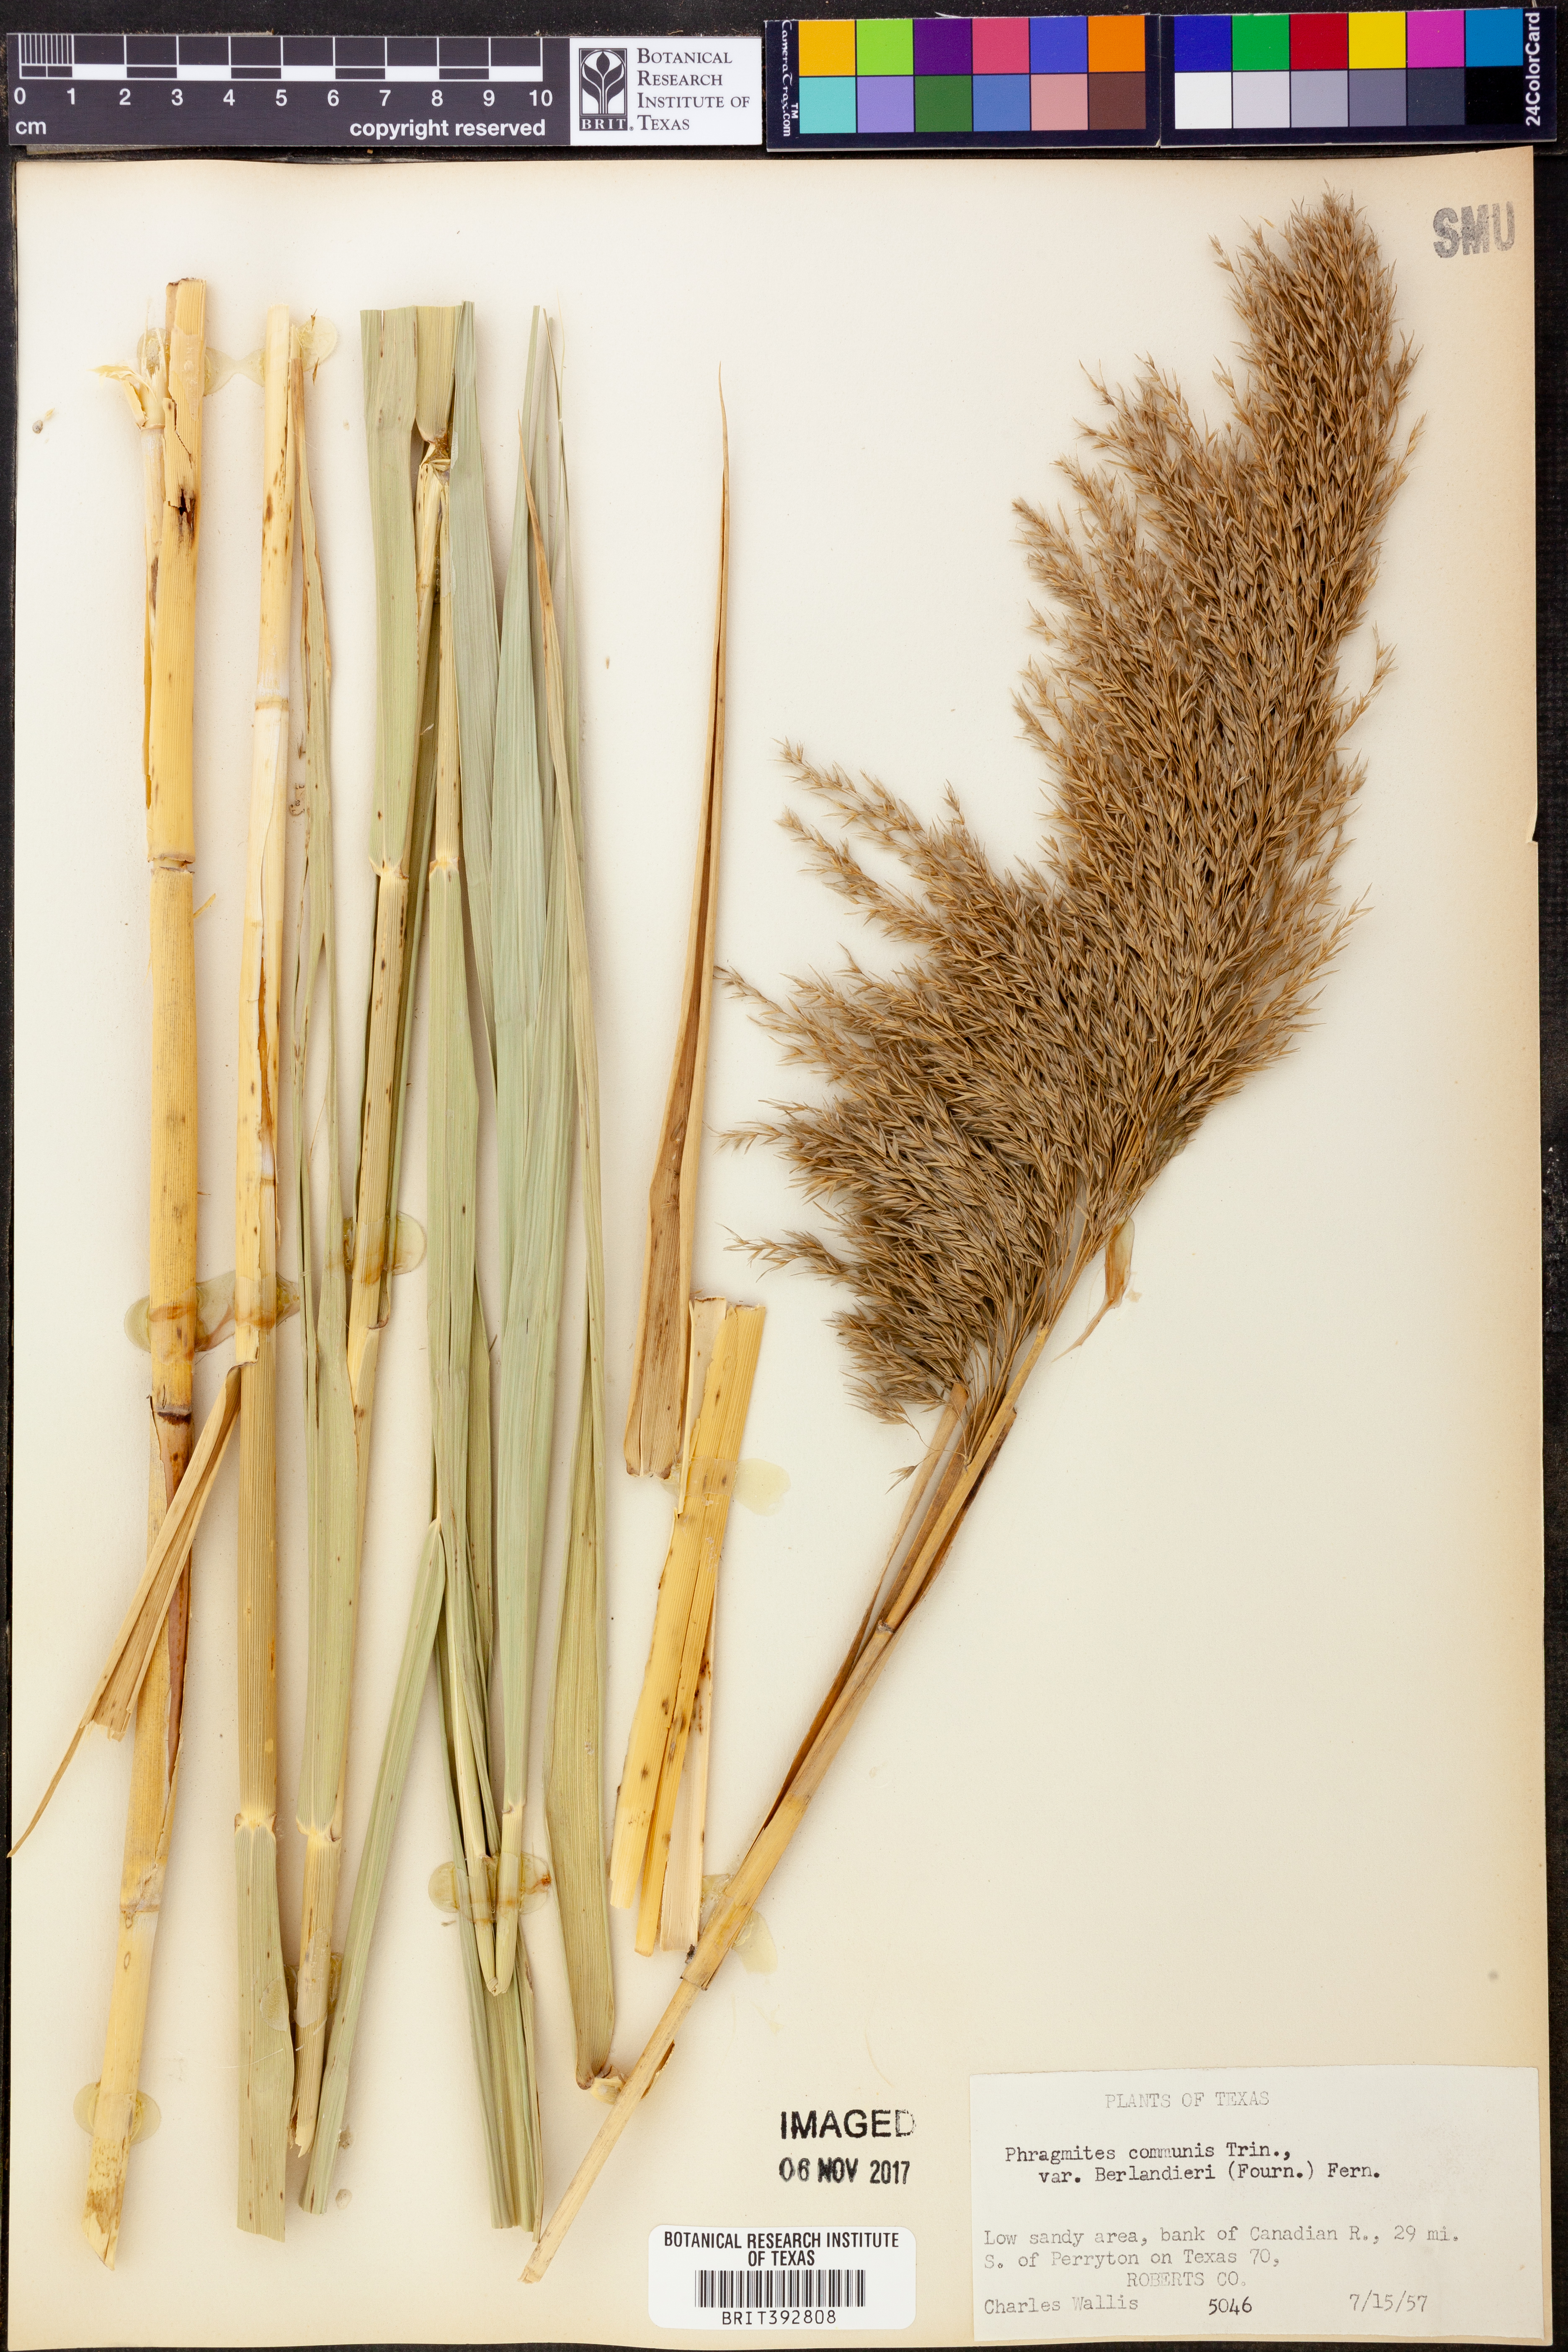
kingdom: Plantae
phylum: Tracheophyta
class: Liliopsida
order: Poales
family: Poaceae
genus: Phragmites
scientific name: Phragmites australis
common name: Common reed
